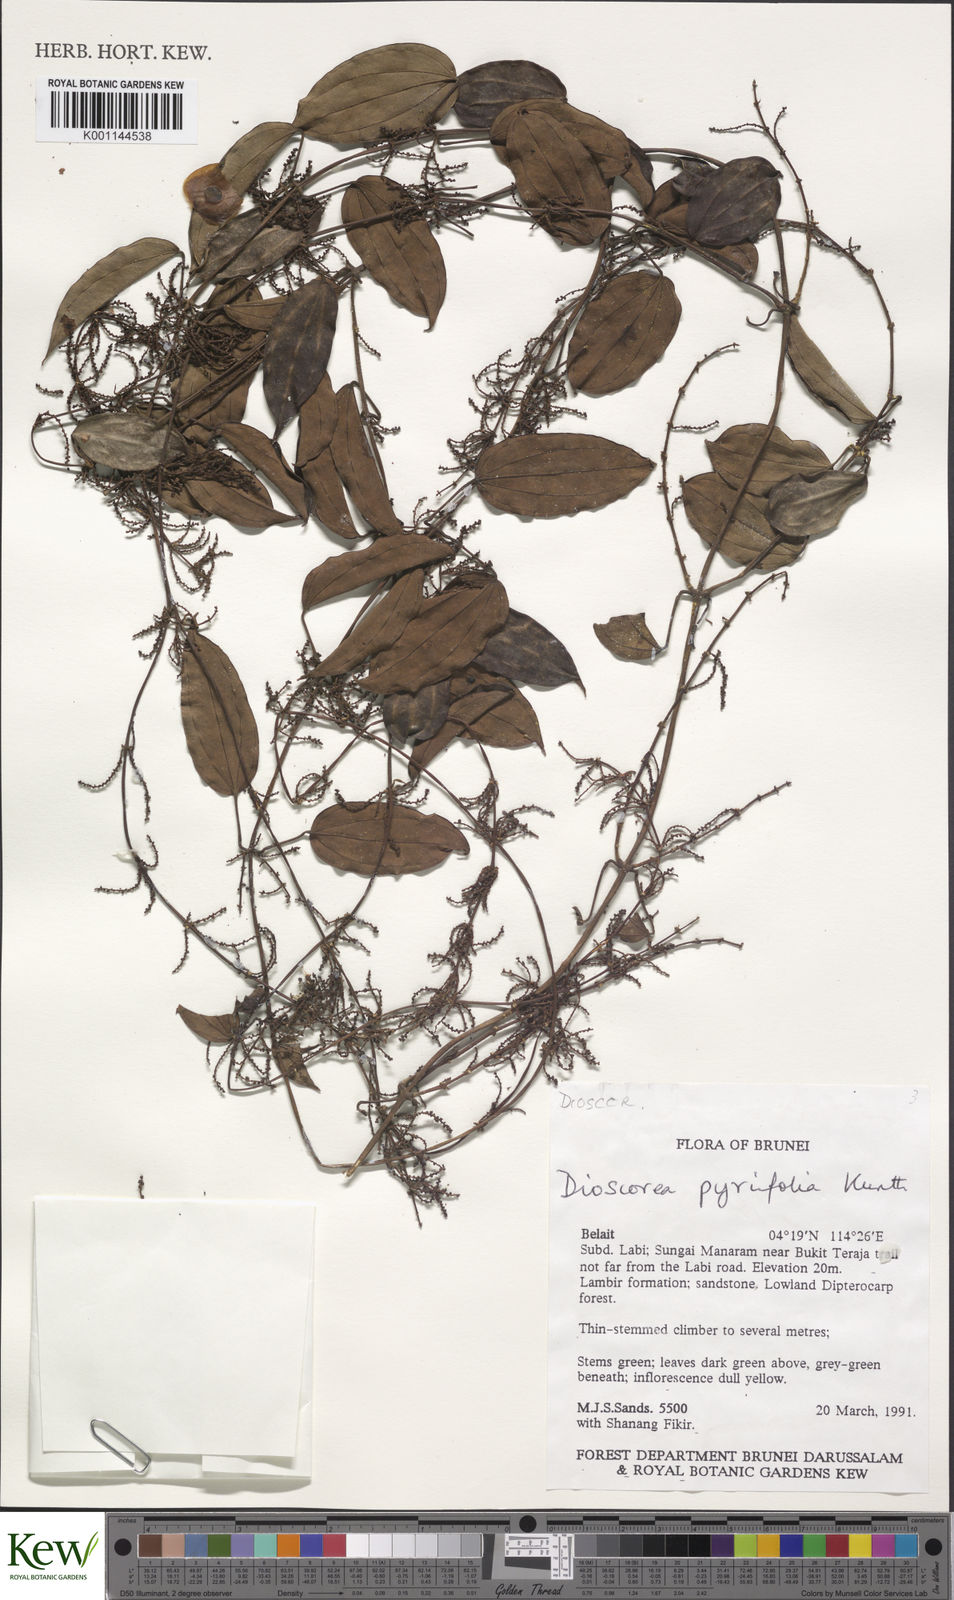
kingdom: Plantae
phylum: Tracheophyta
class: Liliopsida
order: Dioscoreales
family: Dioscoreaceae
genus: Dioscorea
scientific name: Dioscorea pyrifolia
